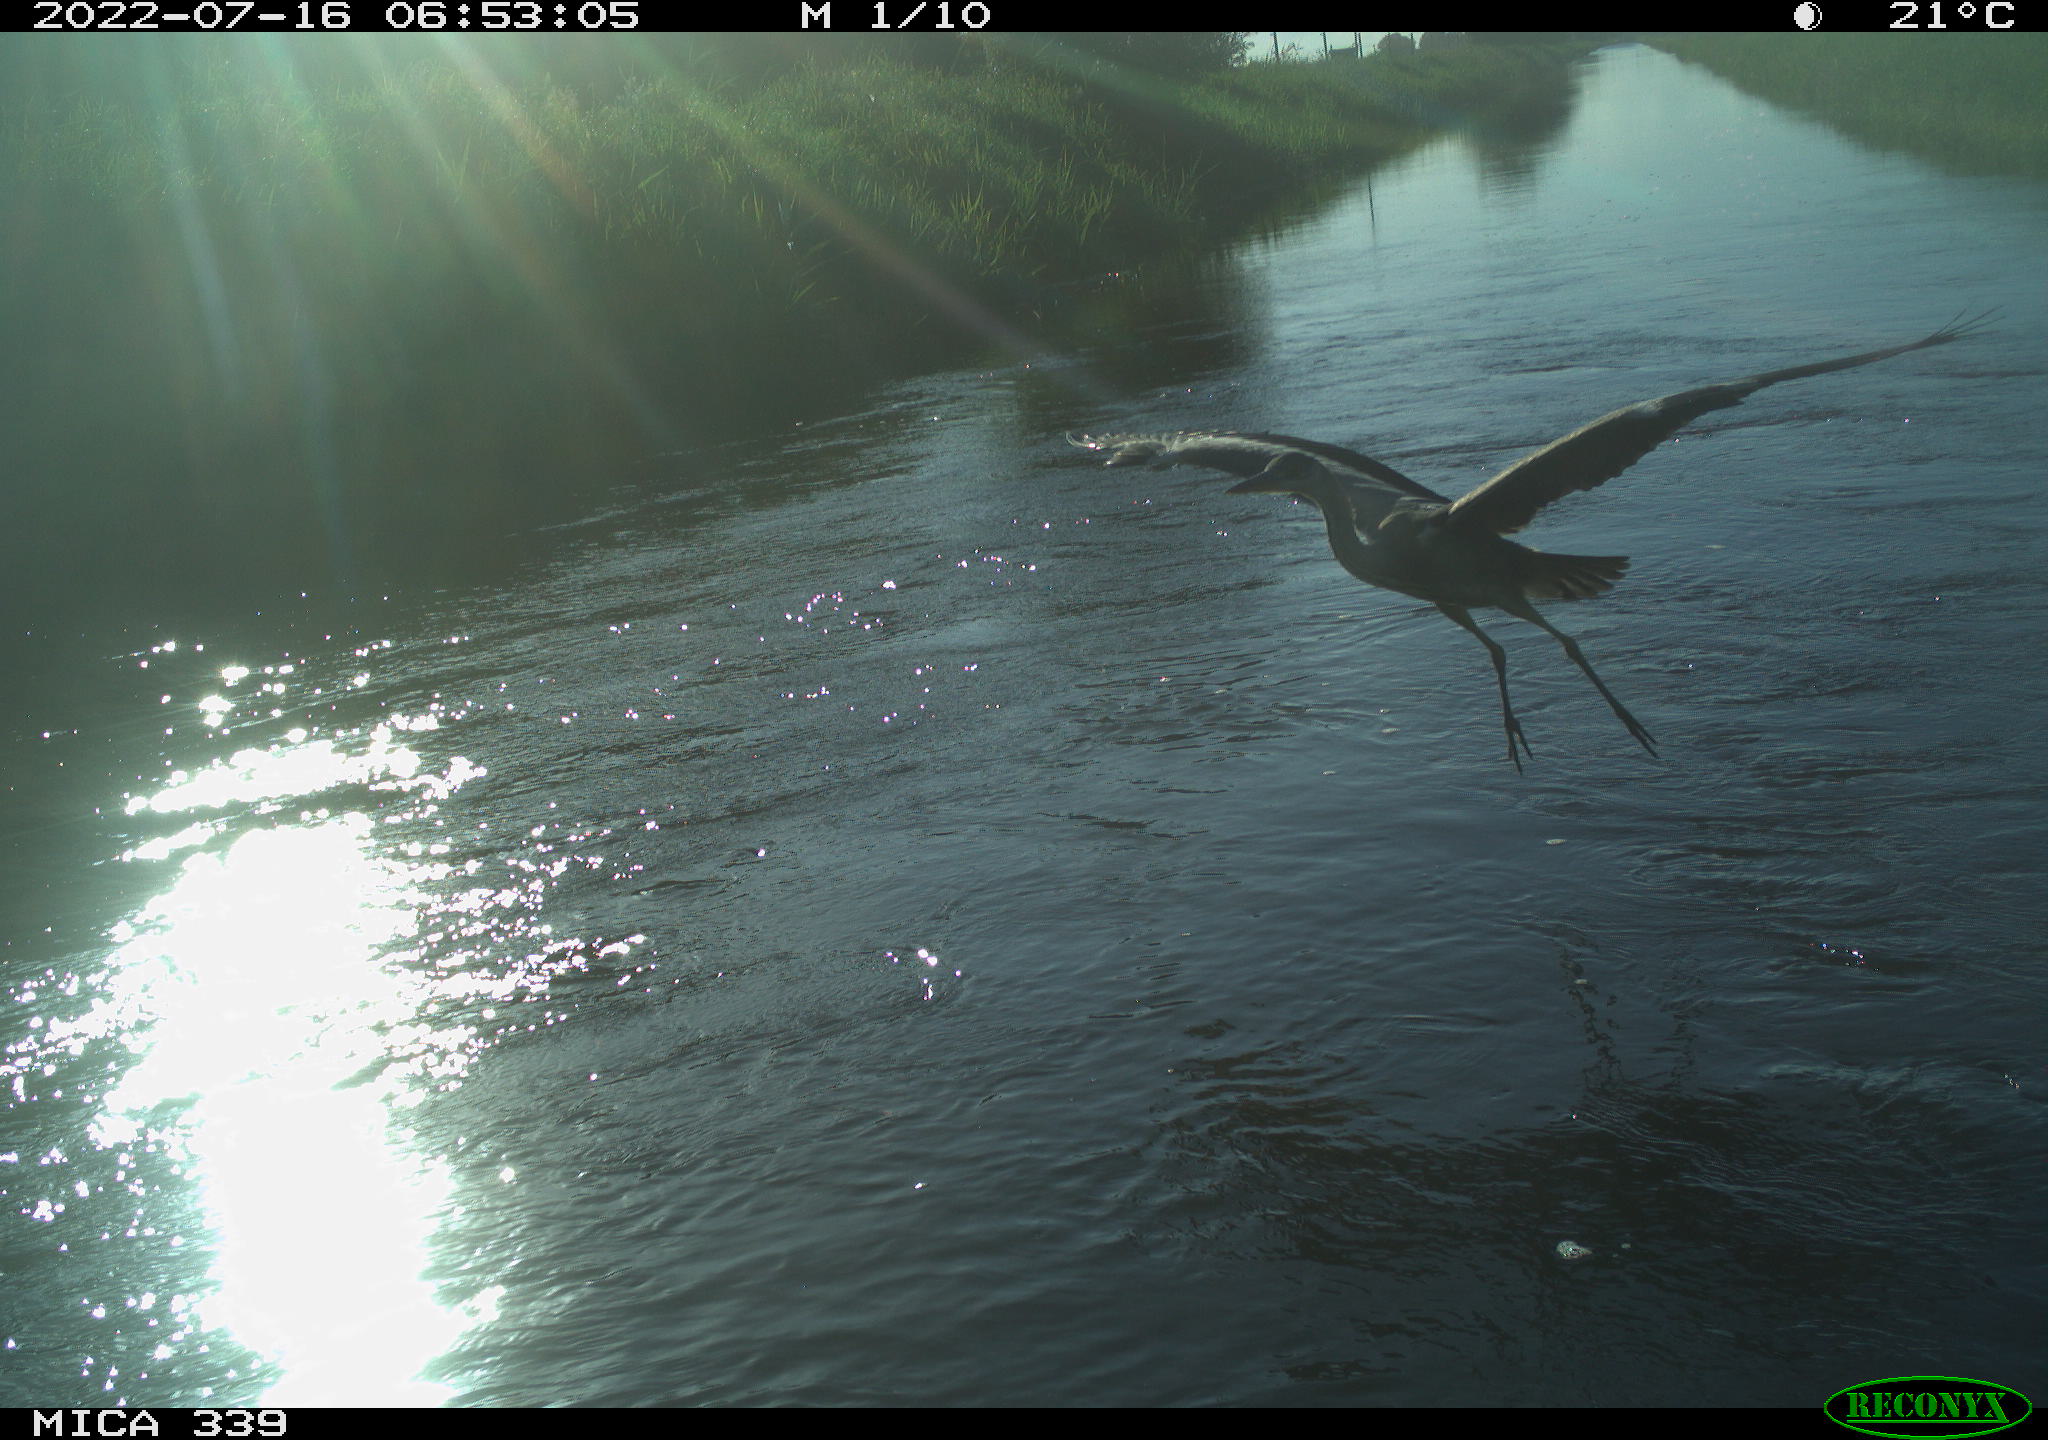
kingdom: Animalia
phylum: Chordata
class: Aves
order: Pelecaniformes
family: Ardeidae
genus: Ardea
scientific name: Ardea cinerea
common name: Grey heron
